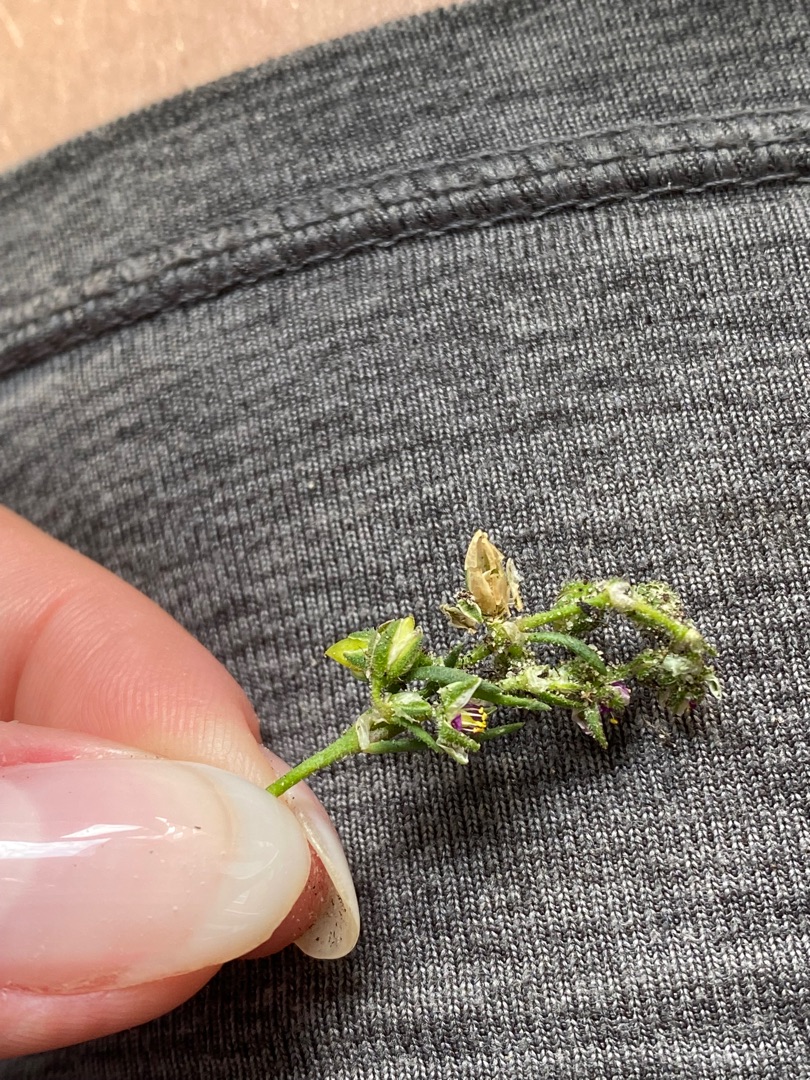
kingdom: Plantae
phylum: Tracheophyta
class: Magnoliopsida
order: Caryophyllales
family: Caryophyllaceae
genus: Spergularia
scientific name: Spergularia media
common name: Vingefrøet hindeknæ
